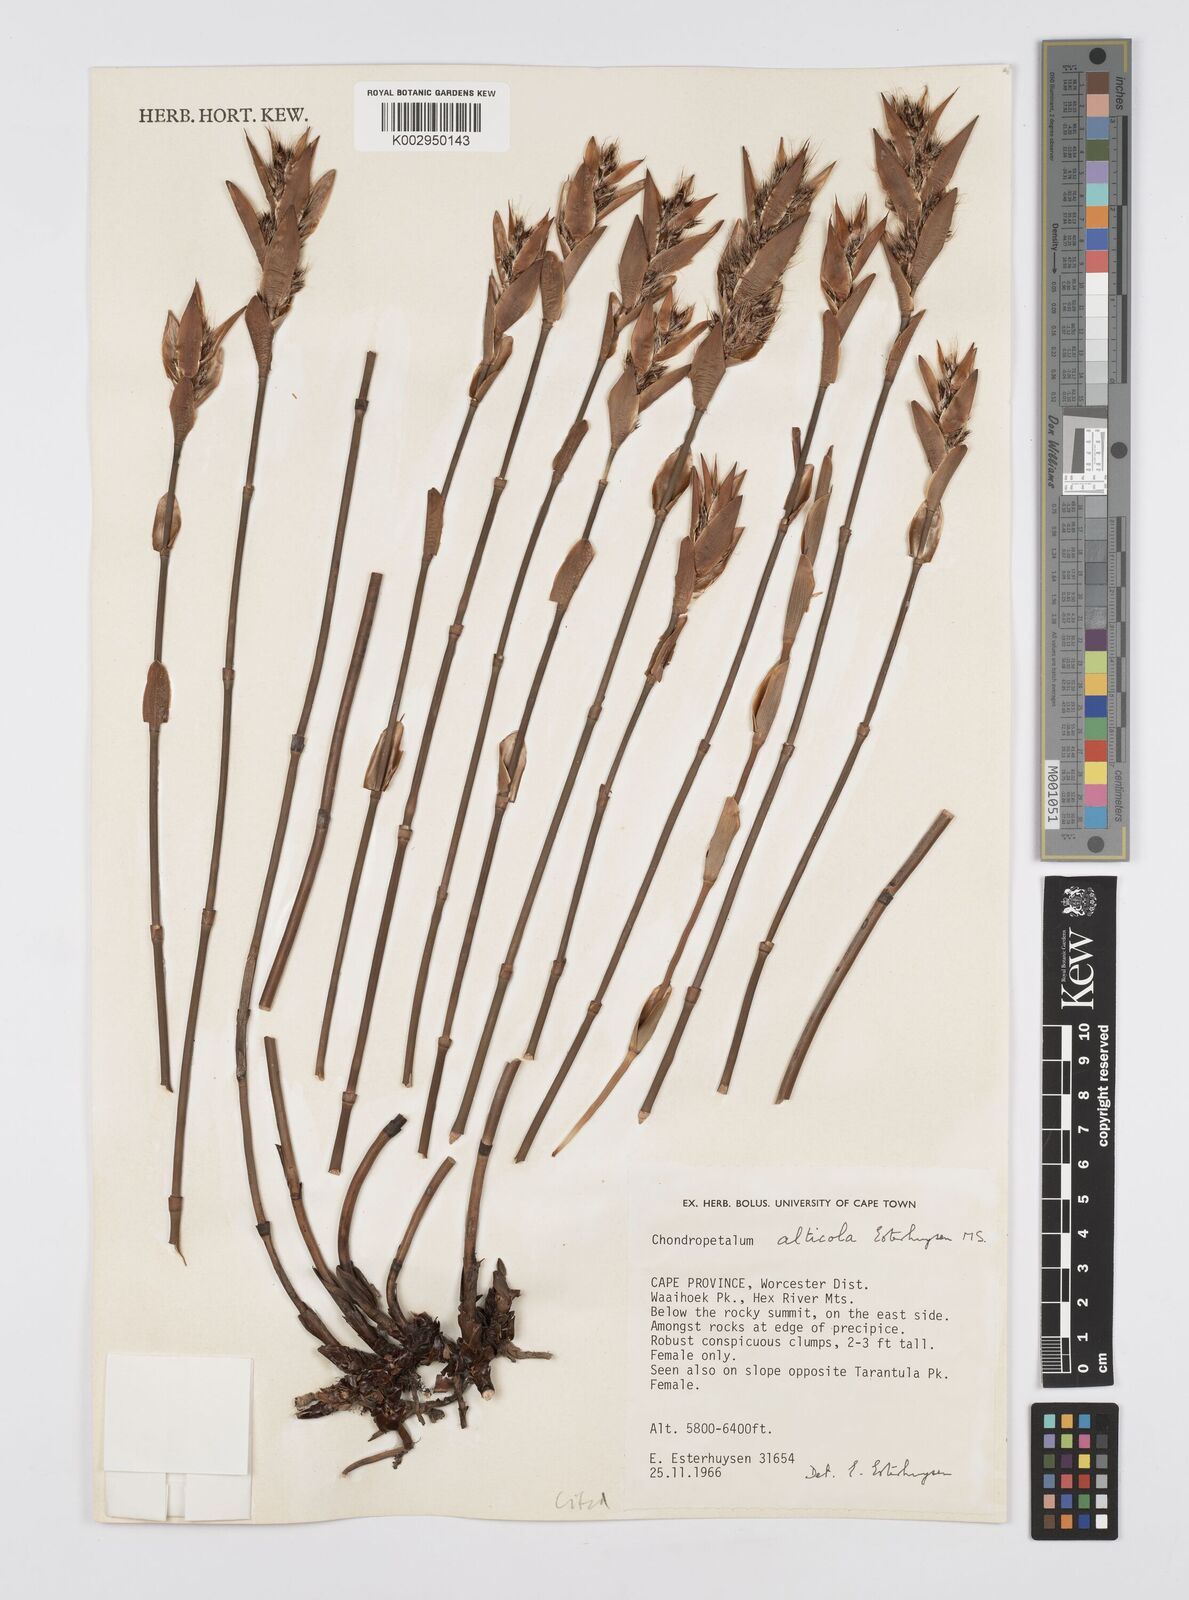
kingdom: Plantae
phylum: Tracheophyta
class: Liliopsida
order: Poales
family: Restionaceae
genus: Askidiosperma
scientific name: Askidiosperma alticola
